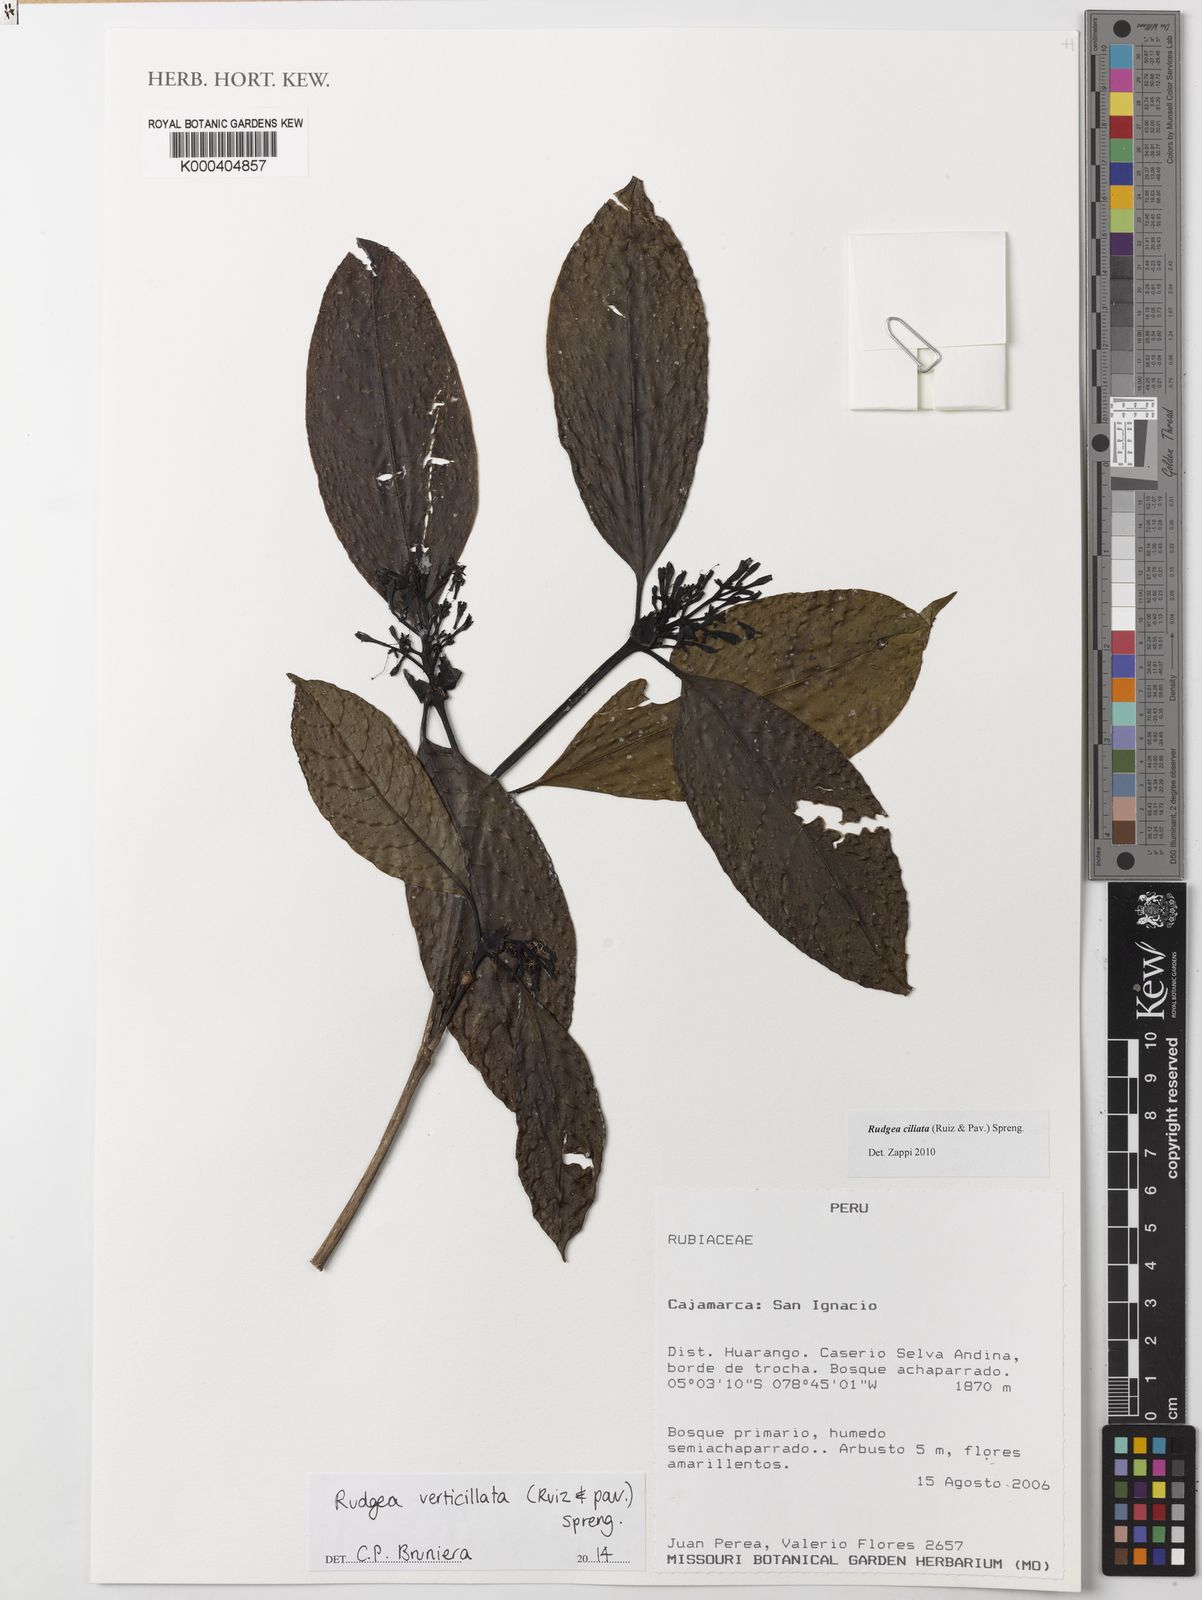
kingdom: Plantae
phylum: Tracheophyta
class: Magnoliopsida
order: Gentianales
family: Rubiaceae
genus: Rudgea
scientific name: Rudgea verticillata
